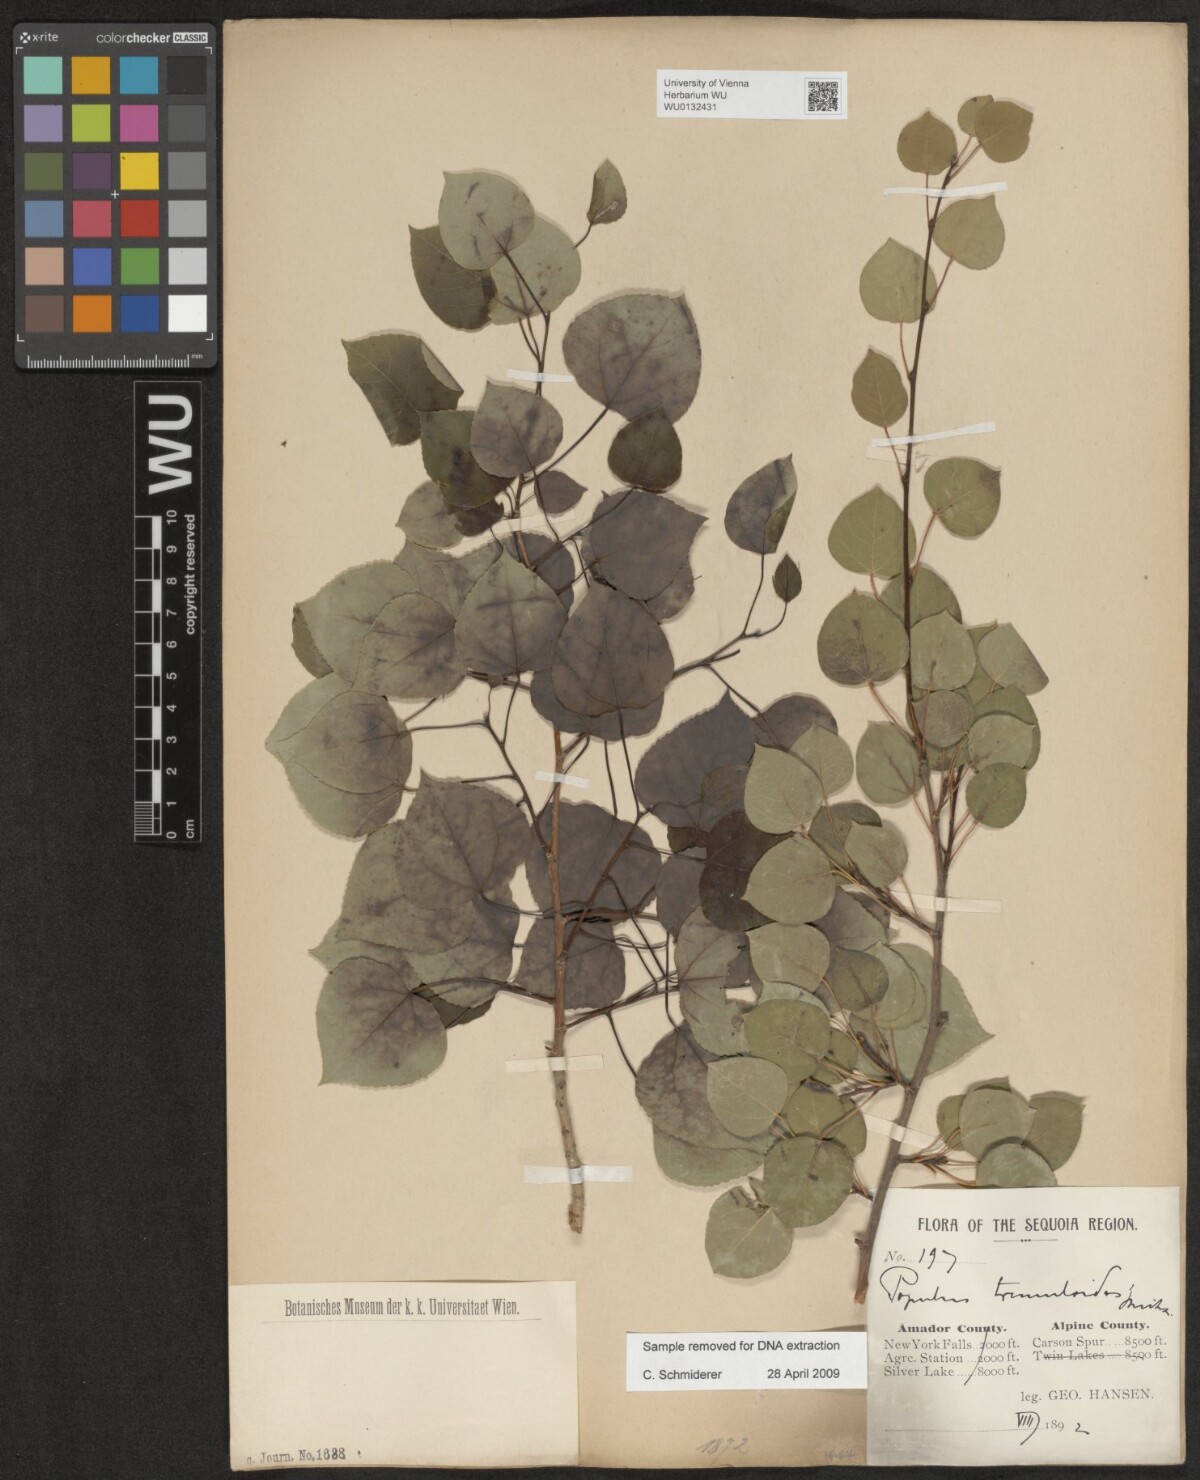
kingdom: Plantae
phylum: Tracheophyta
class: Magnoliopsida
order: Malpighiales
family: Salicaceae
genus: Populus
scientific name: Populus tremuloides
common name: Quaking aspen
